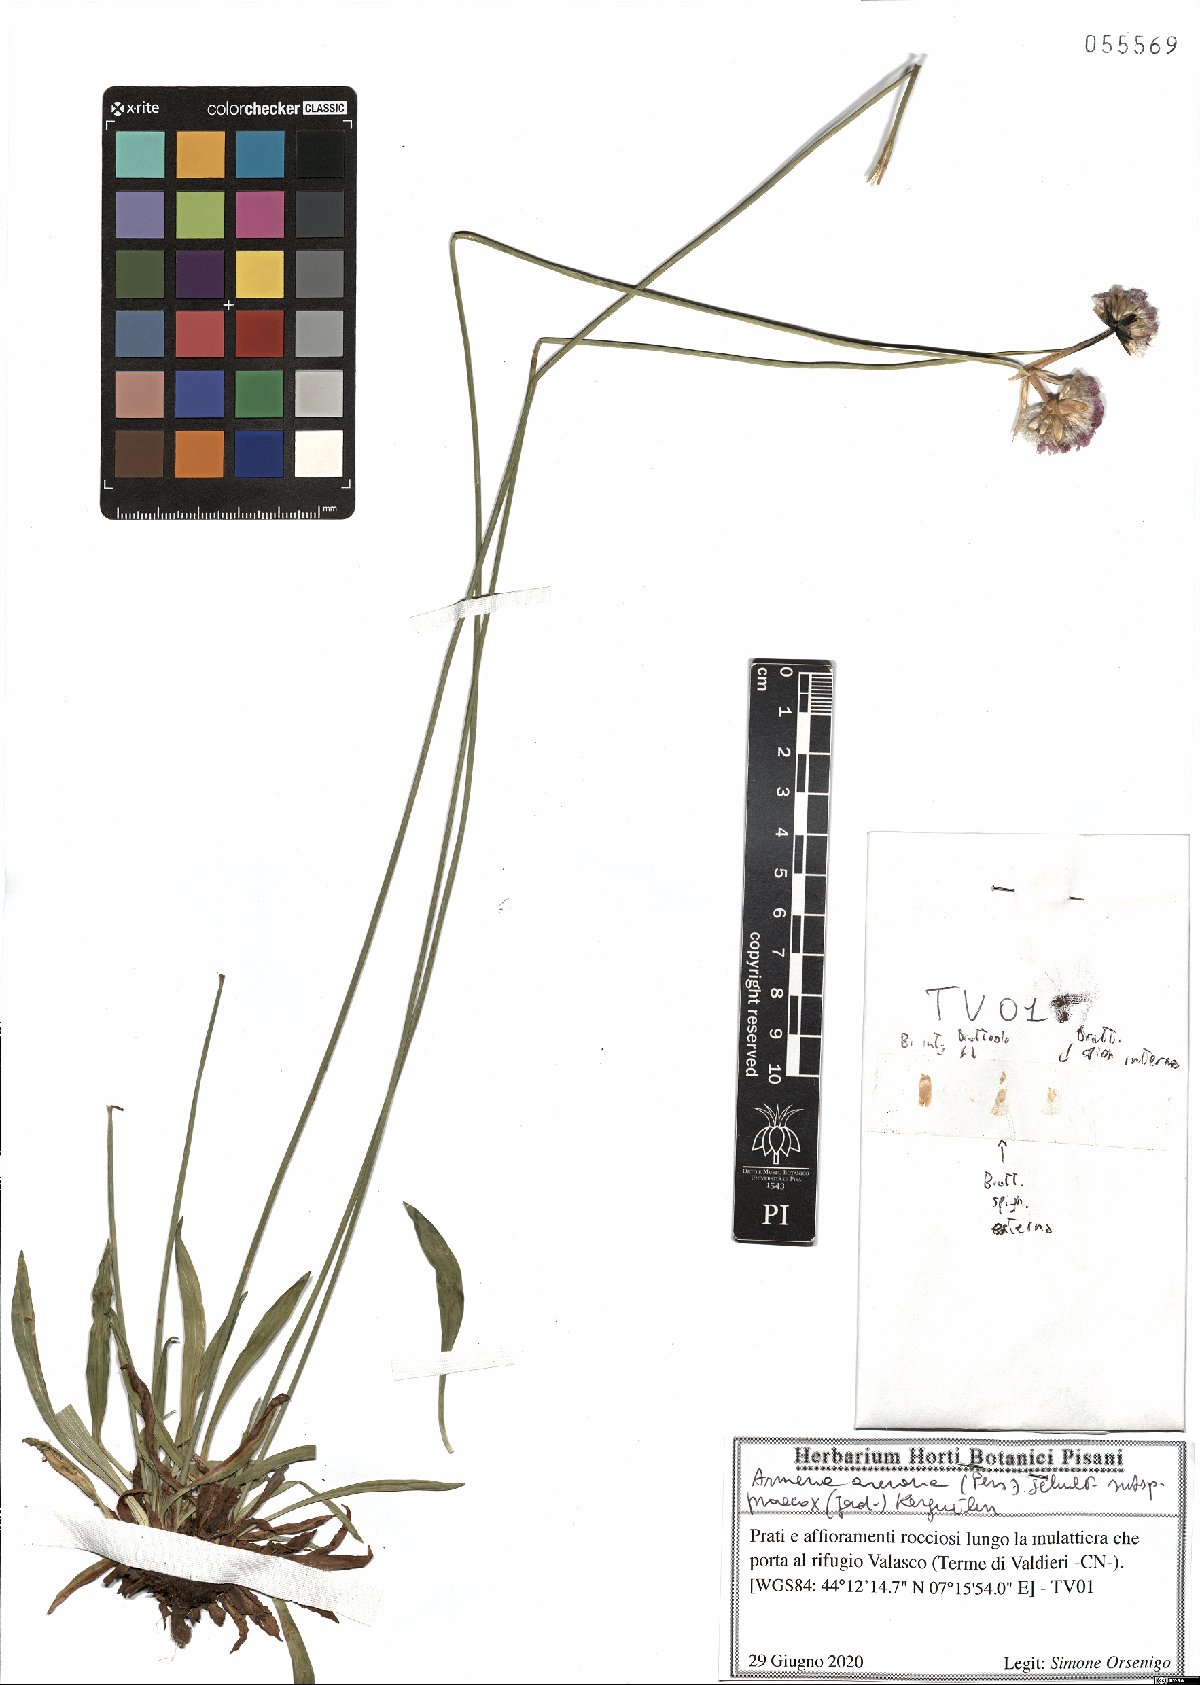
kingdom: Plantae
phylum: Tracheophyta
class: Magnoliopsida
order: Caryophyllales
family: Plumbaginaceae
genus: Armeria
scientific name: Armeria arenaria
